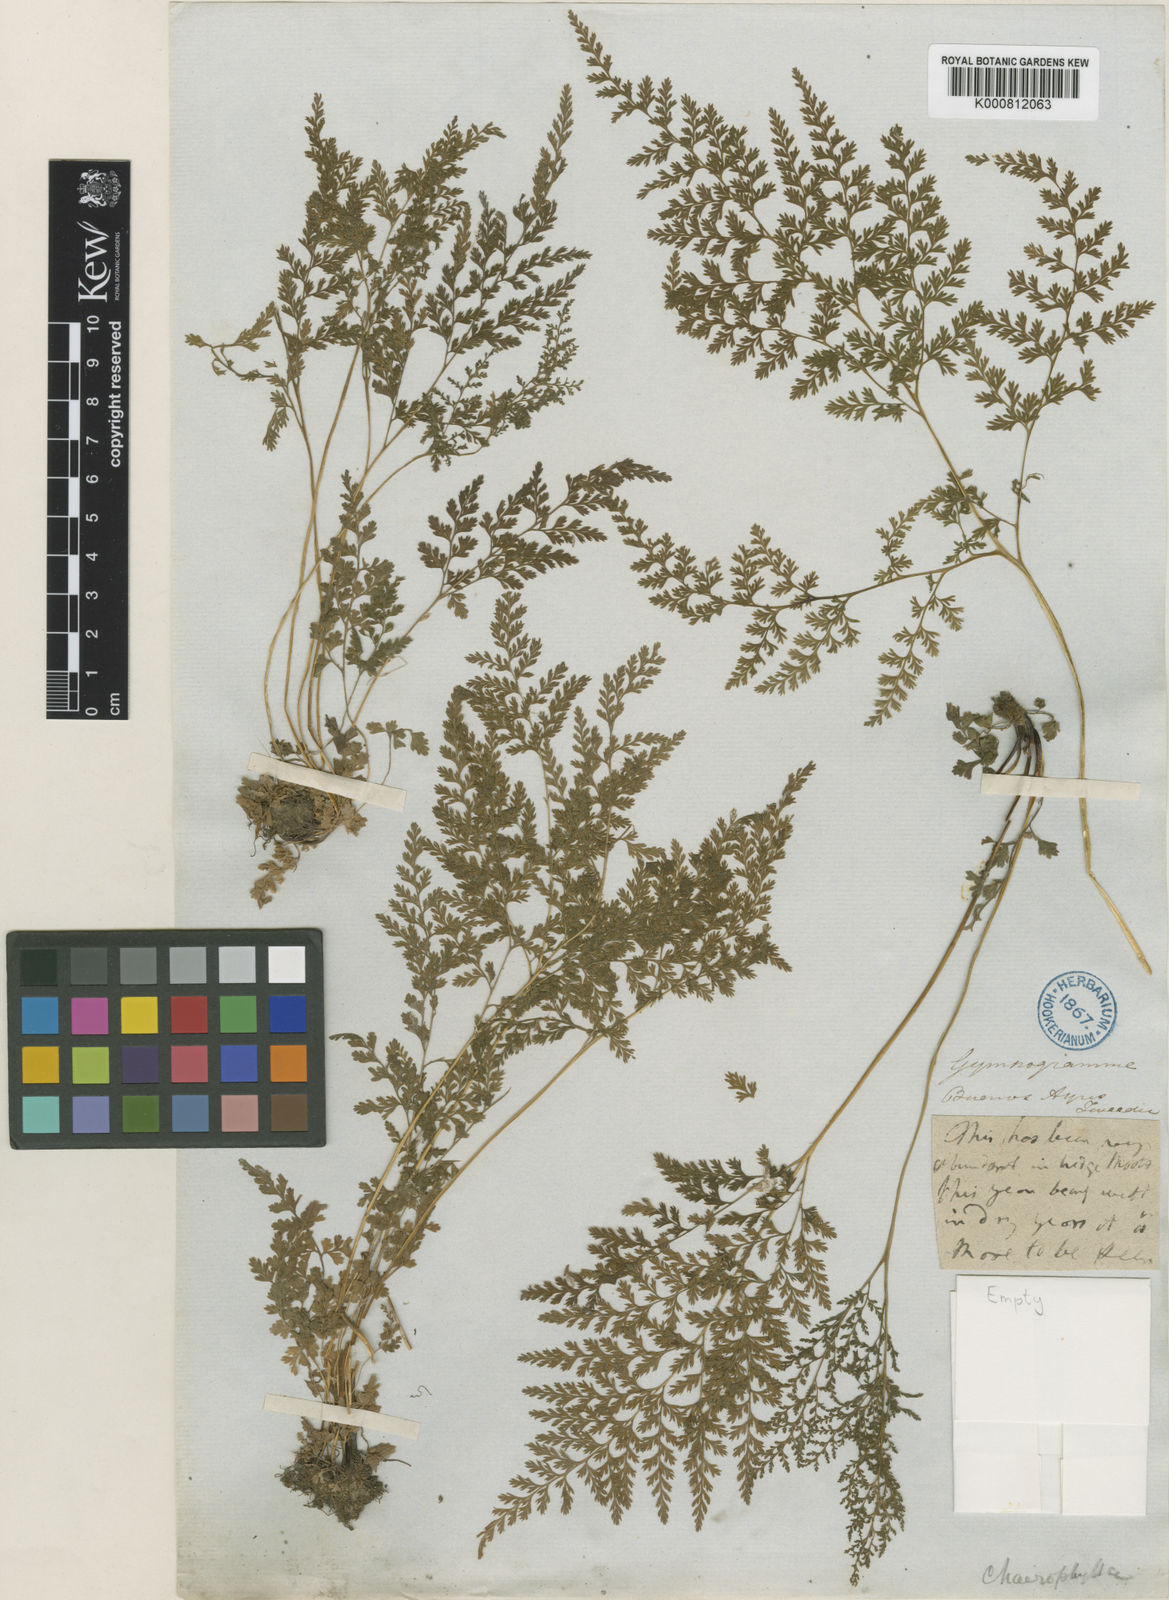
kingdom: Plantae
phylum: Tracheophyta
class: Polypodiopsida
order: Polypodiales
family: Pteridaceae
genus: Gastoniella
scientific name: Gastoniella chaerophylla
